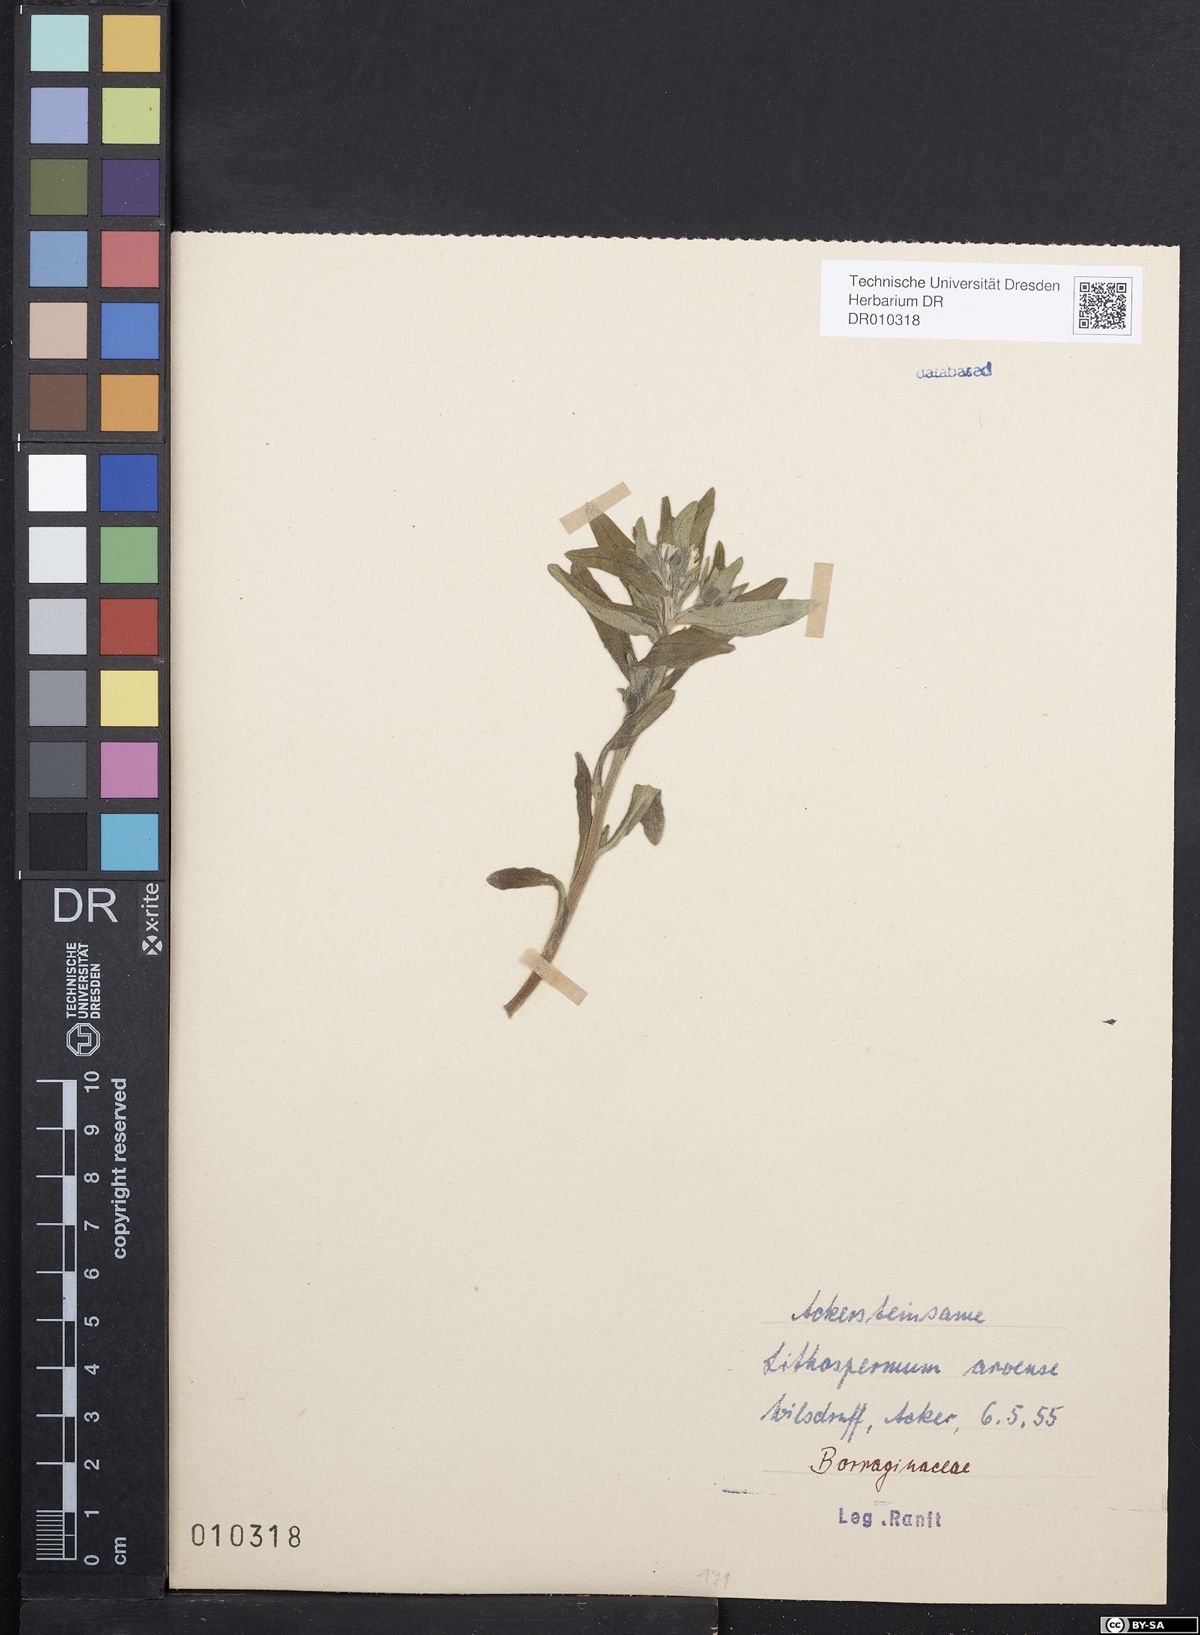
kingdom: Plantae
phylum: Tracheophyta
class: Magnoliopsida
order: Boraginales
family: Boraginaceae
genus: Buglossoides
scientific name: Buglossoides arvensis
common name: Corn gromwell
